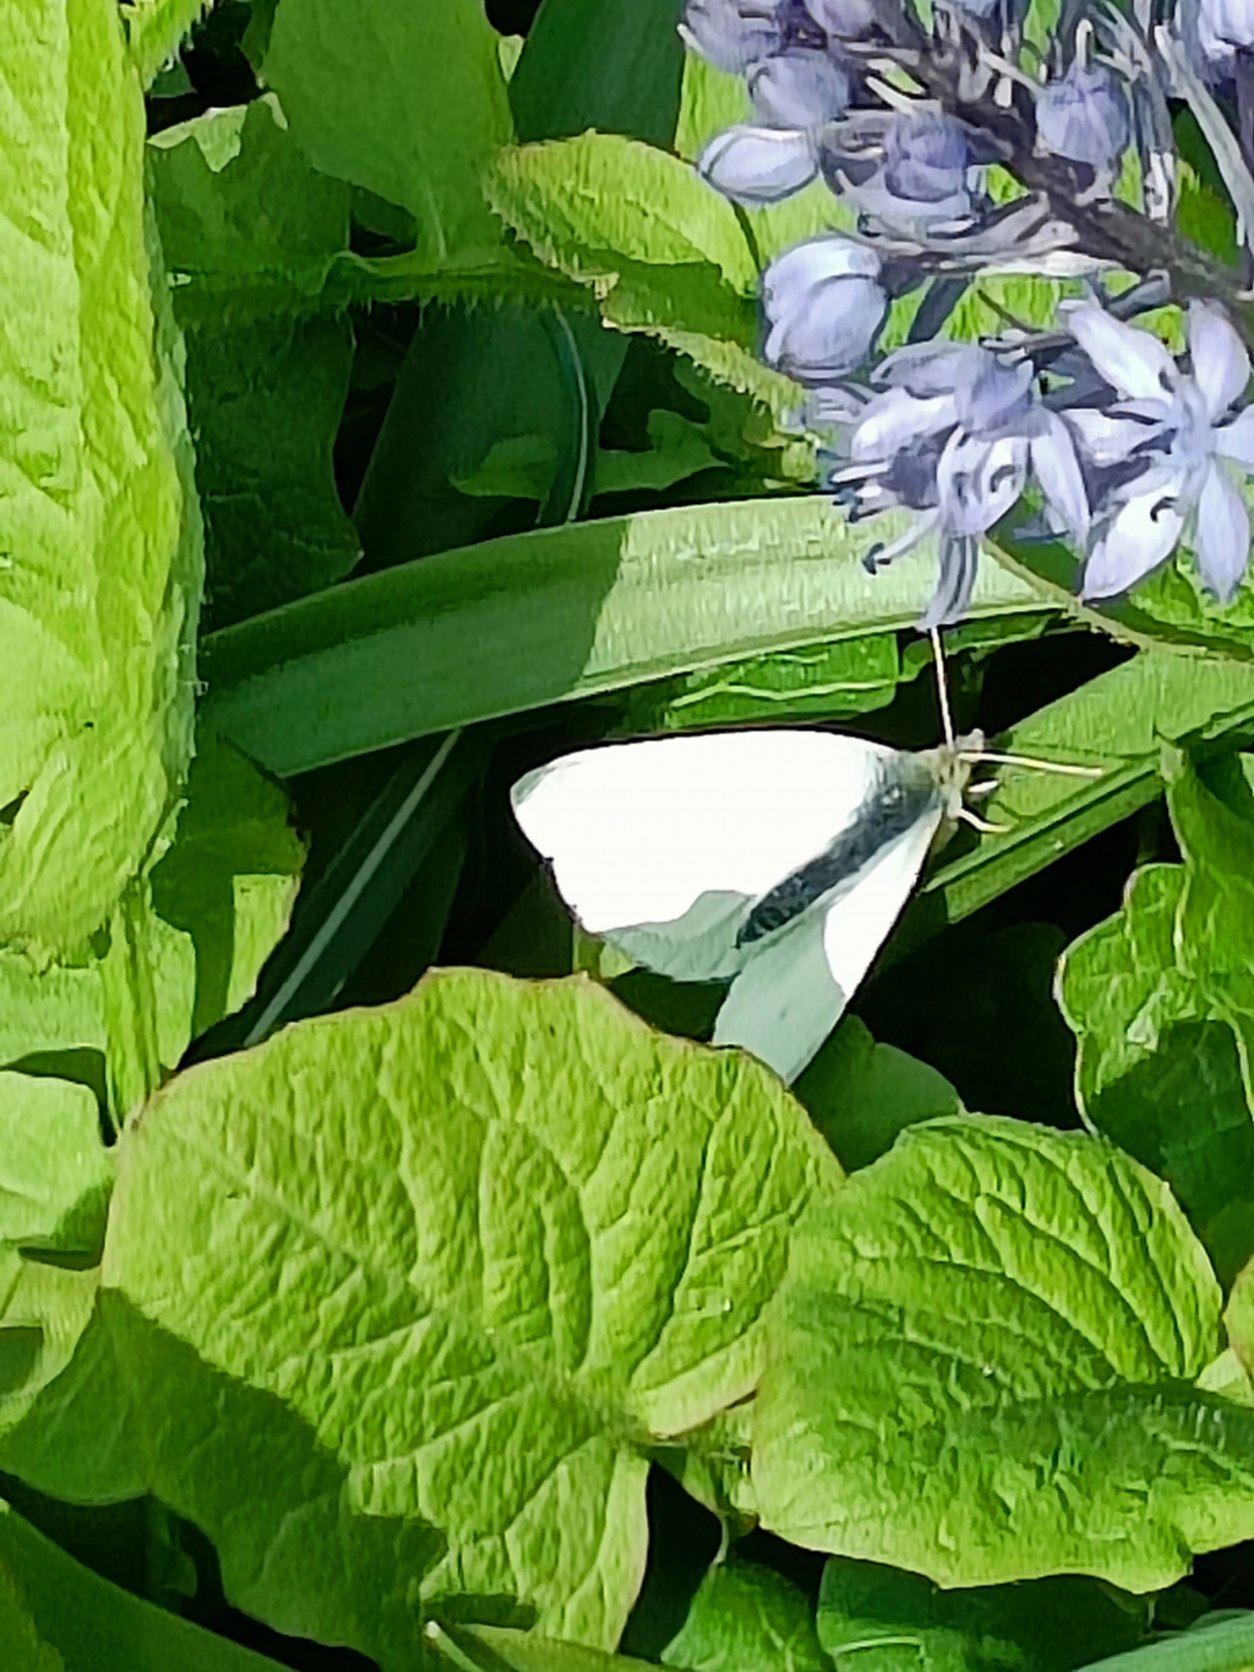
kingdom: Animalia
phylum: Arthropoda
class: Insecta
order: Lepidoptera
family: Pieridae
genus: Pieris
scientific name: Pieris rapae
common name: Lille kålsommerfugl
